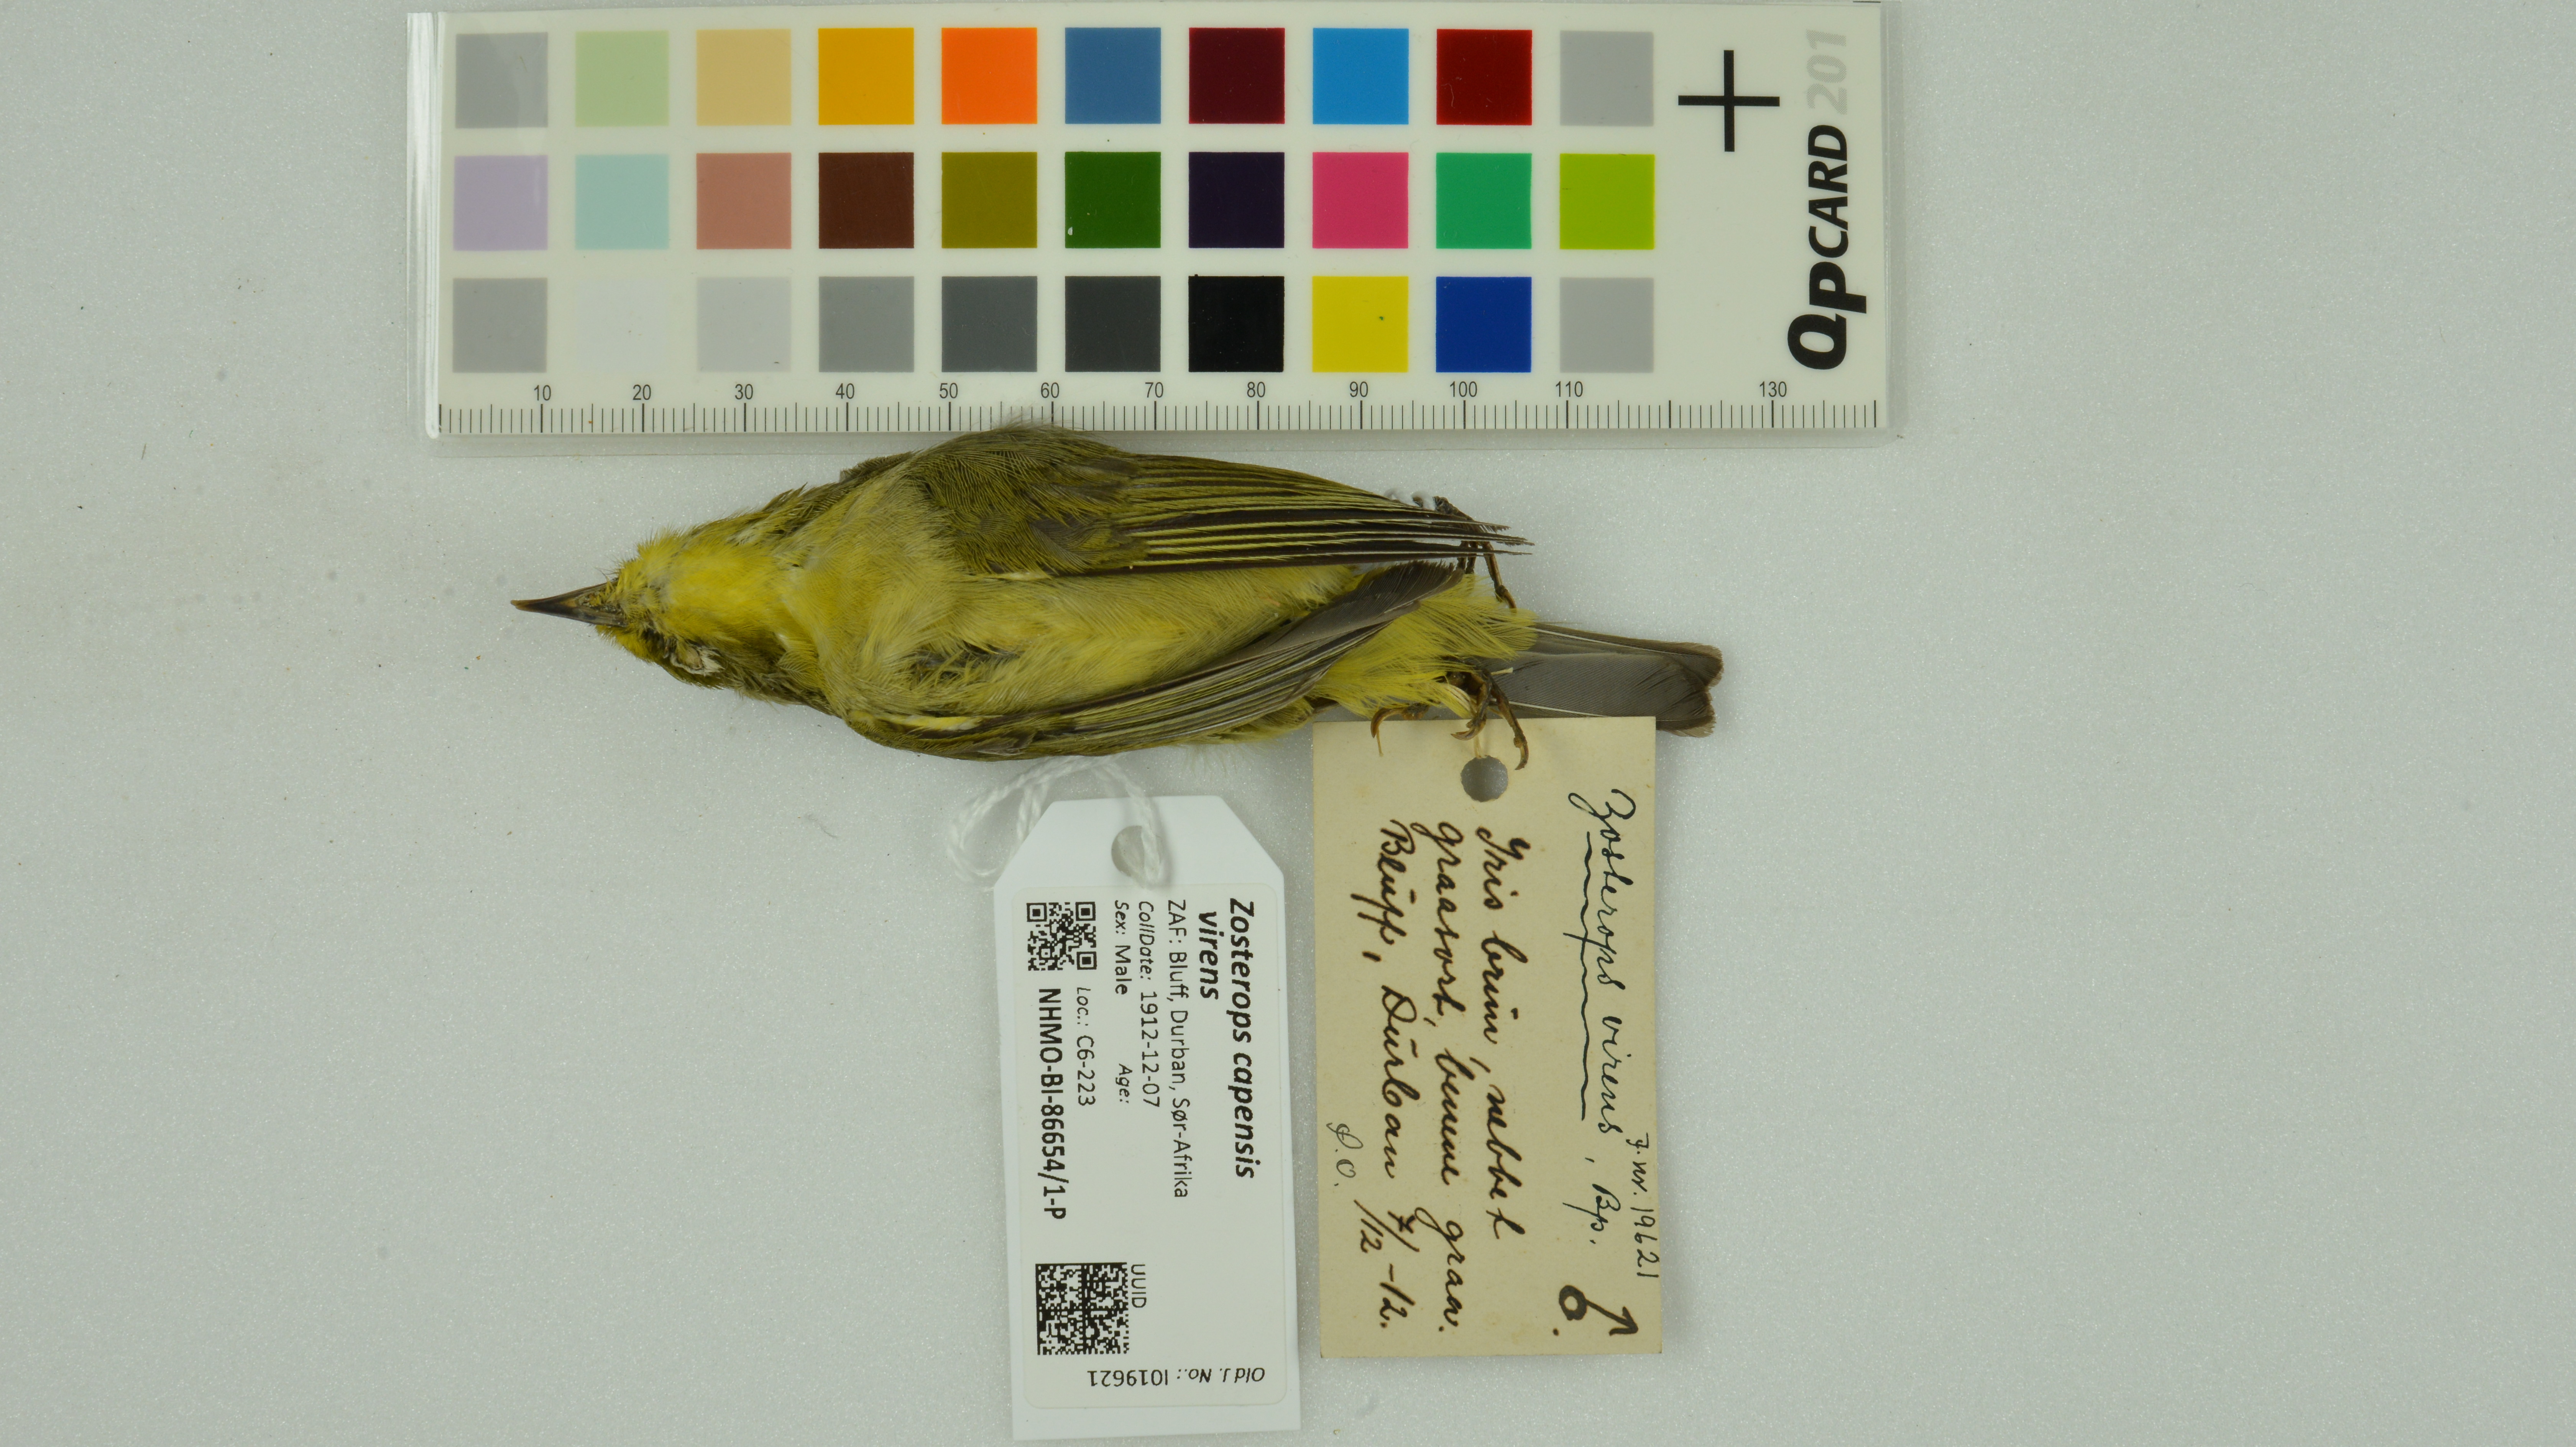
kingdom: Animalia
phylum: Chordata
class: Aves
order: Passeriformes
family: Zosteropidae
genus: Zosterops
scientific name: Zosterops virens
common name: Cape white-eye
